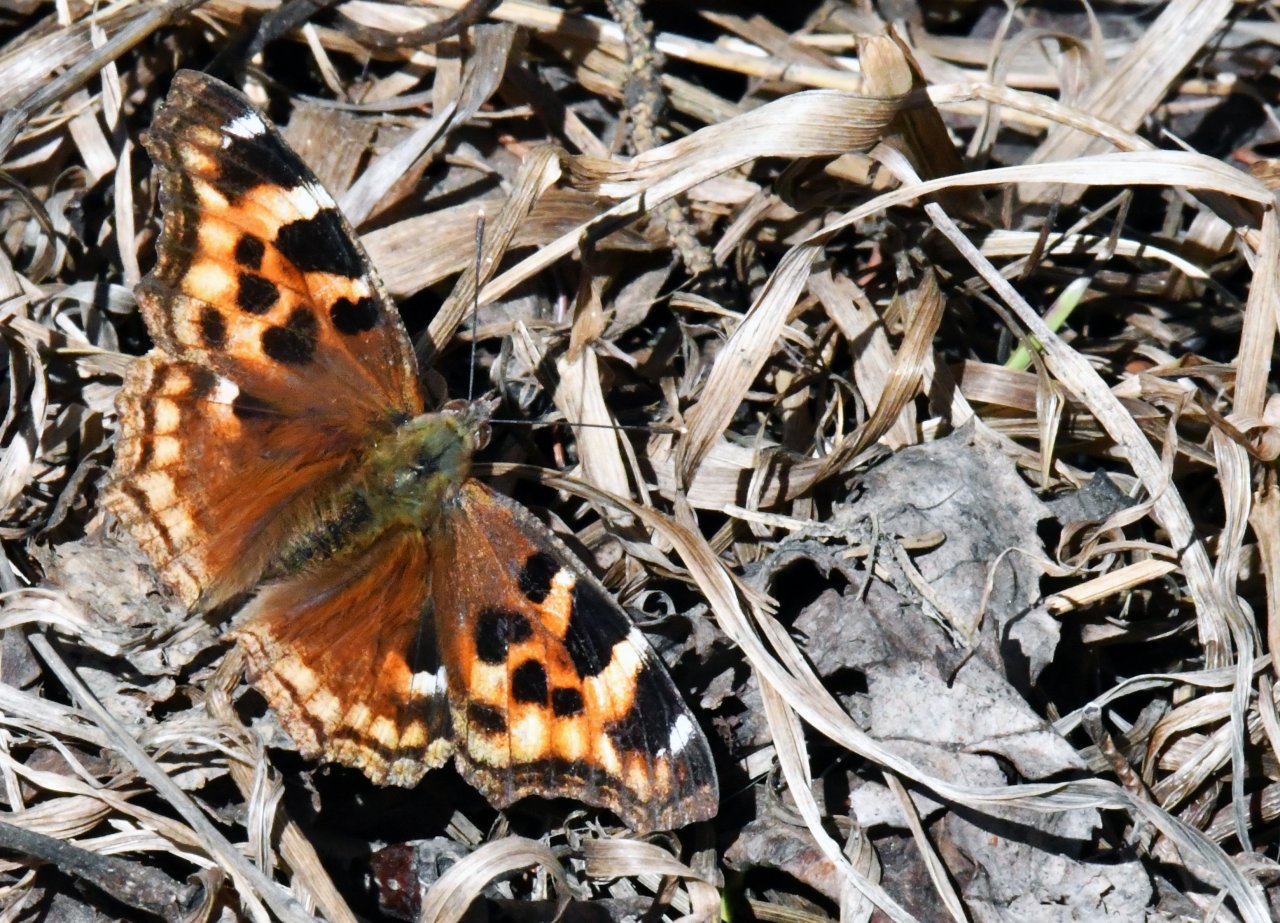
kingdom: Animalia
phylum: Arthropoda
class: Insecta
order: Lepidoptera
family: Nymphalidae
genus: Polygonia
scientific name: Polygonia vaualbum
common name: Compton Tortoiseshell
